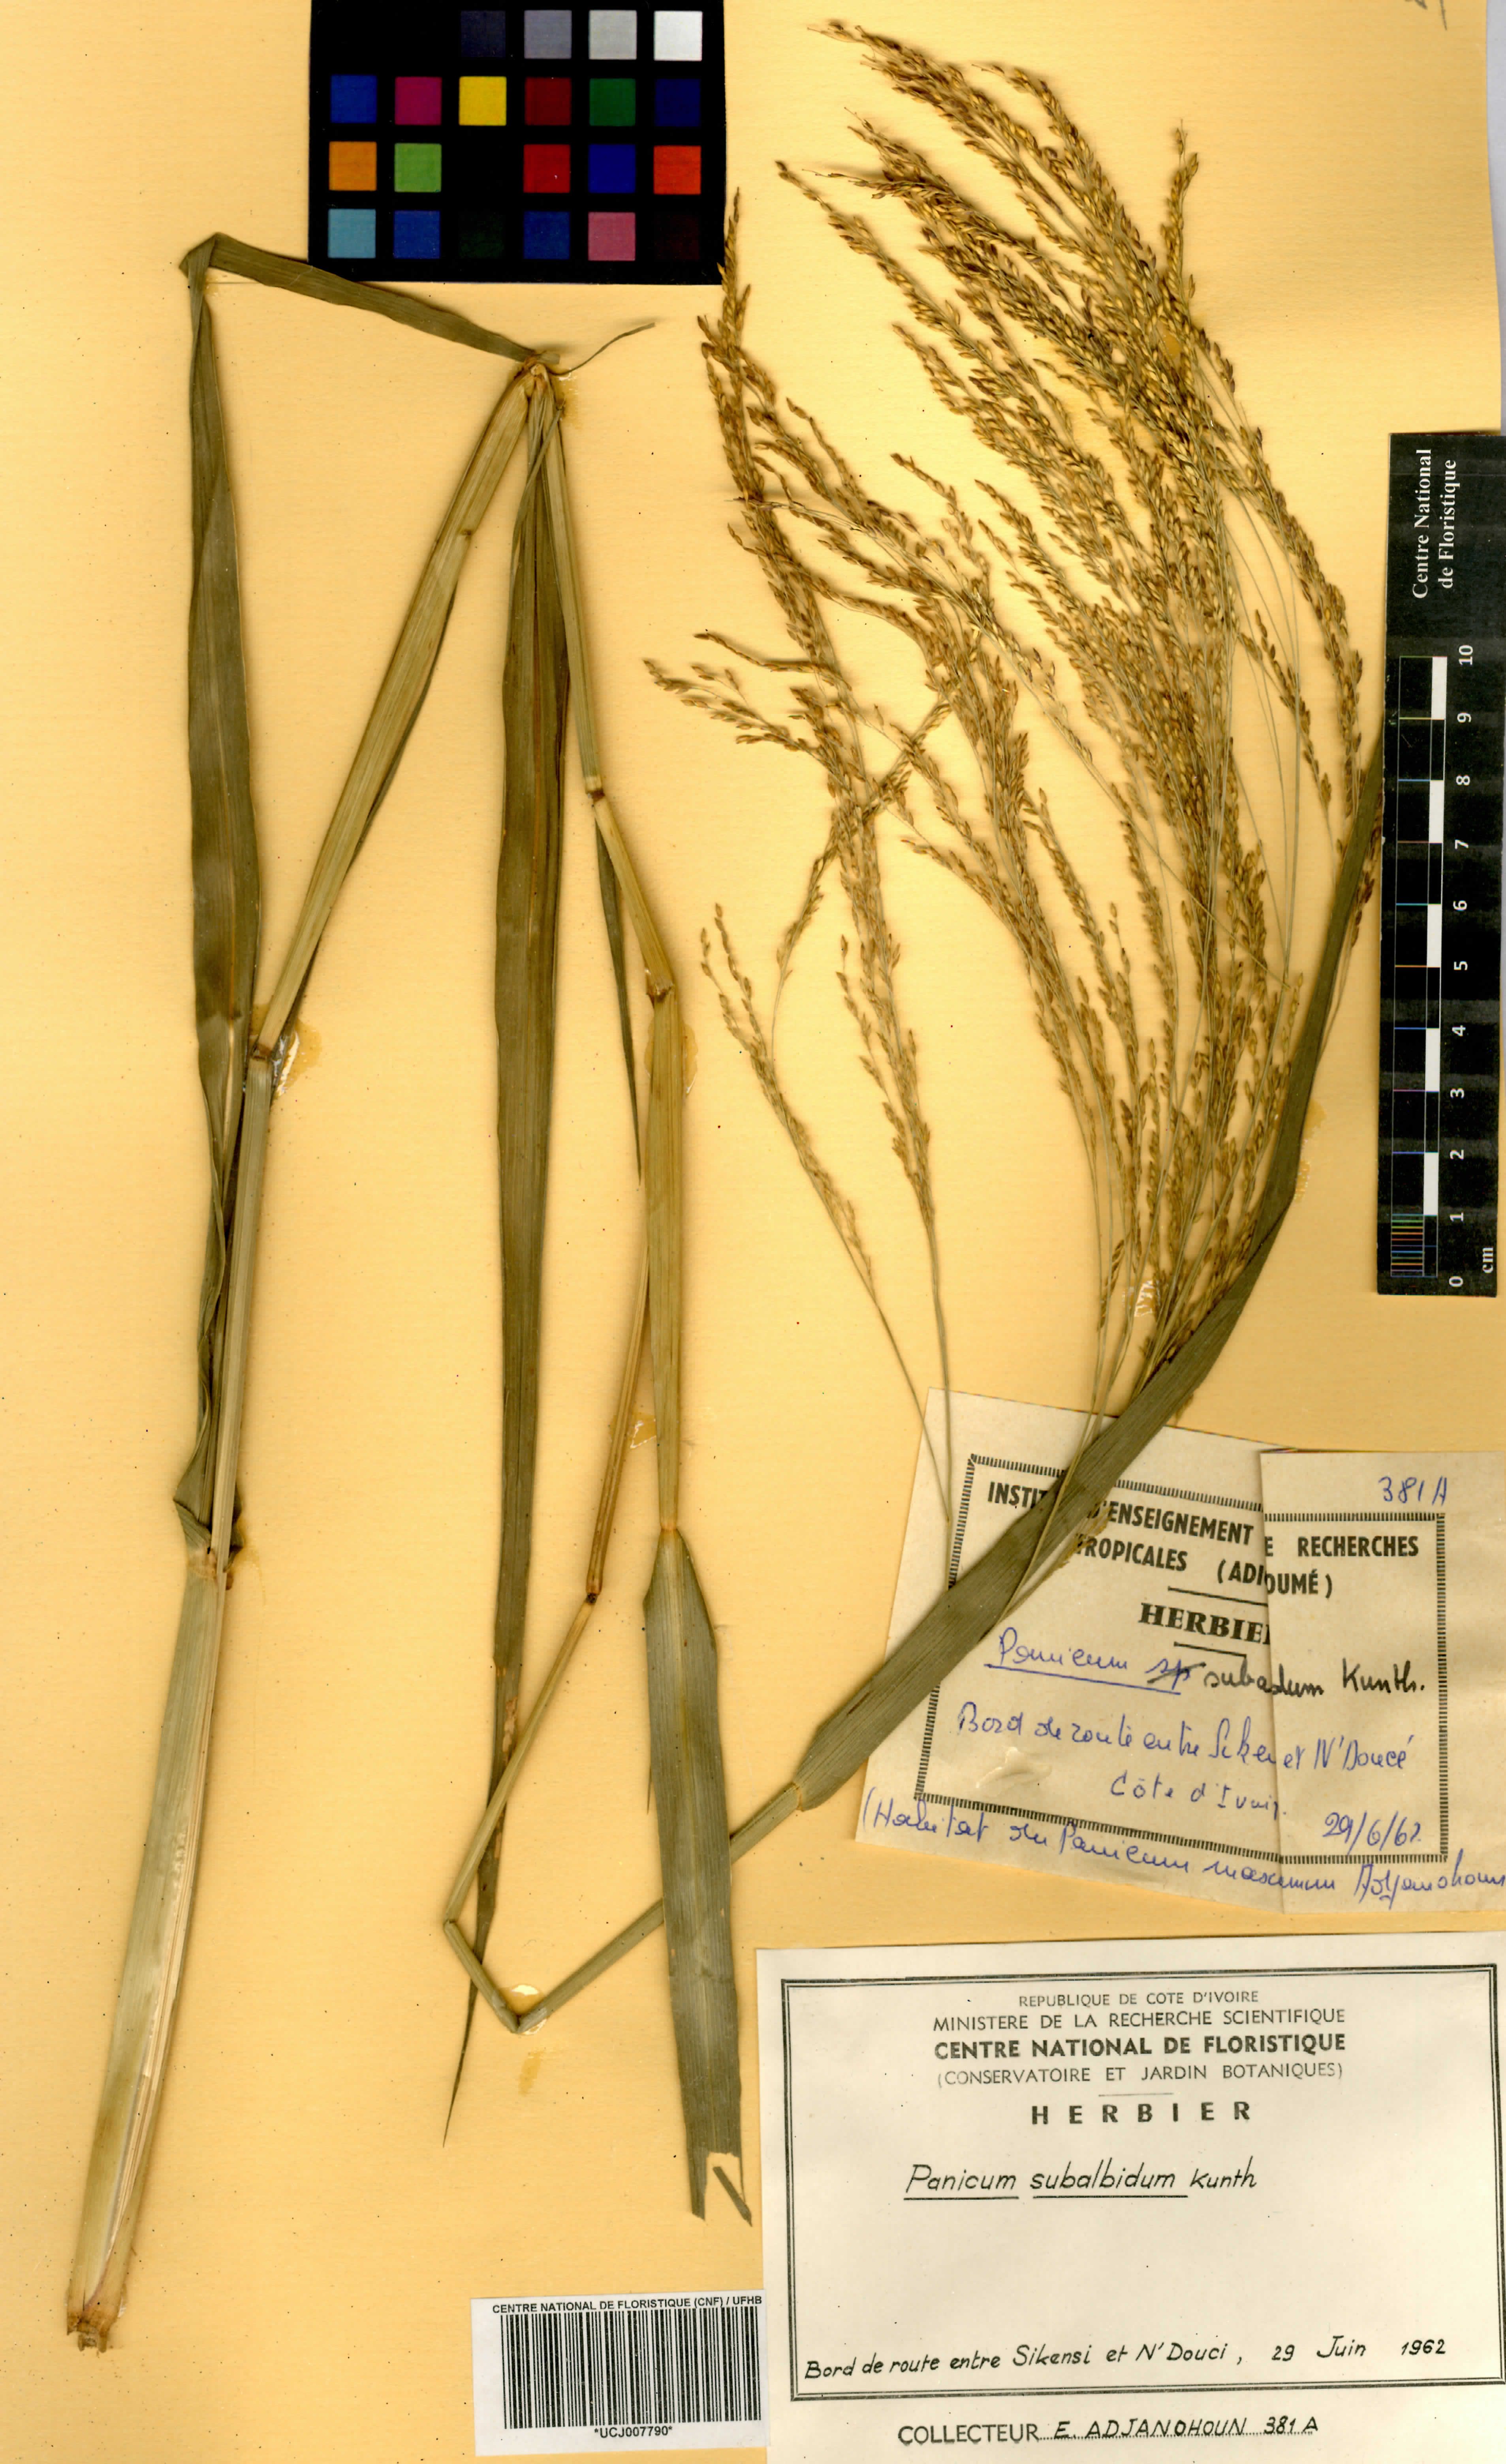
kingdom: Plantae
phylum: Tracheophyta
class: Liliopsida
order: Poales
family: Poaceae
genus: Panicum
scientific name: Panicum subalbidum
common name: Elbow buffalo grass
